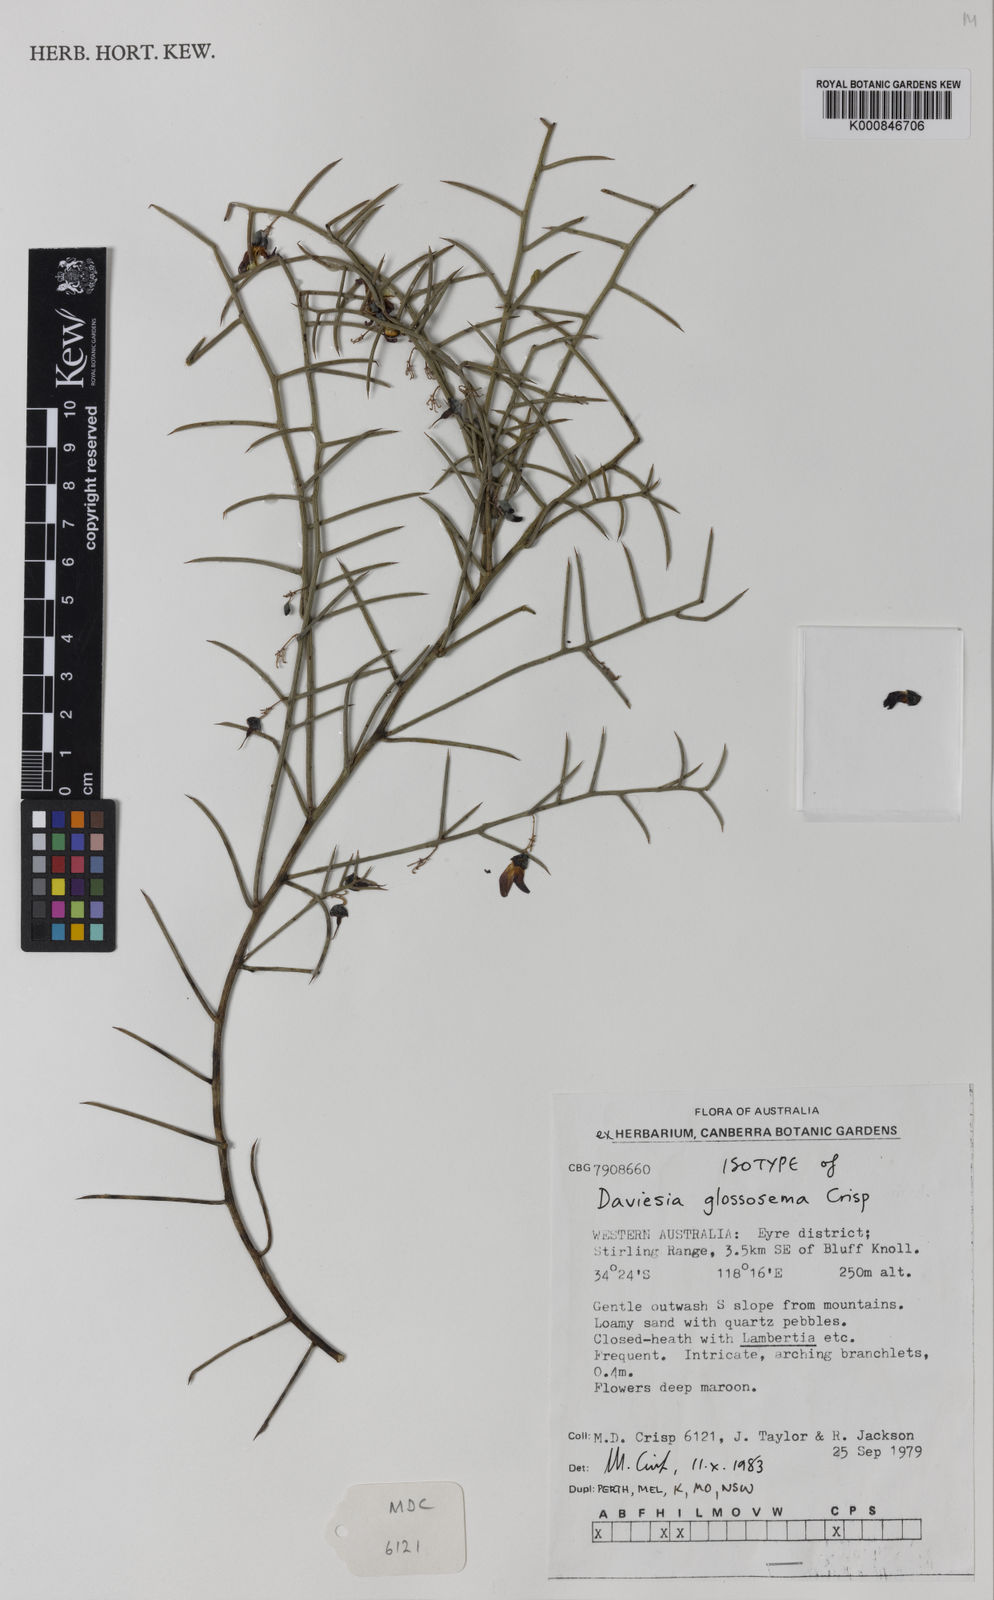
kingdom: Plantae
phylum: Tracheophyta
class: Magnoliopsida
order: Fabales
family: Fabaceae
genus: Daviesia
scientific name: Daviesia glossosema
